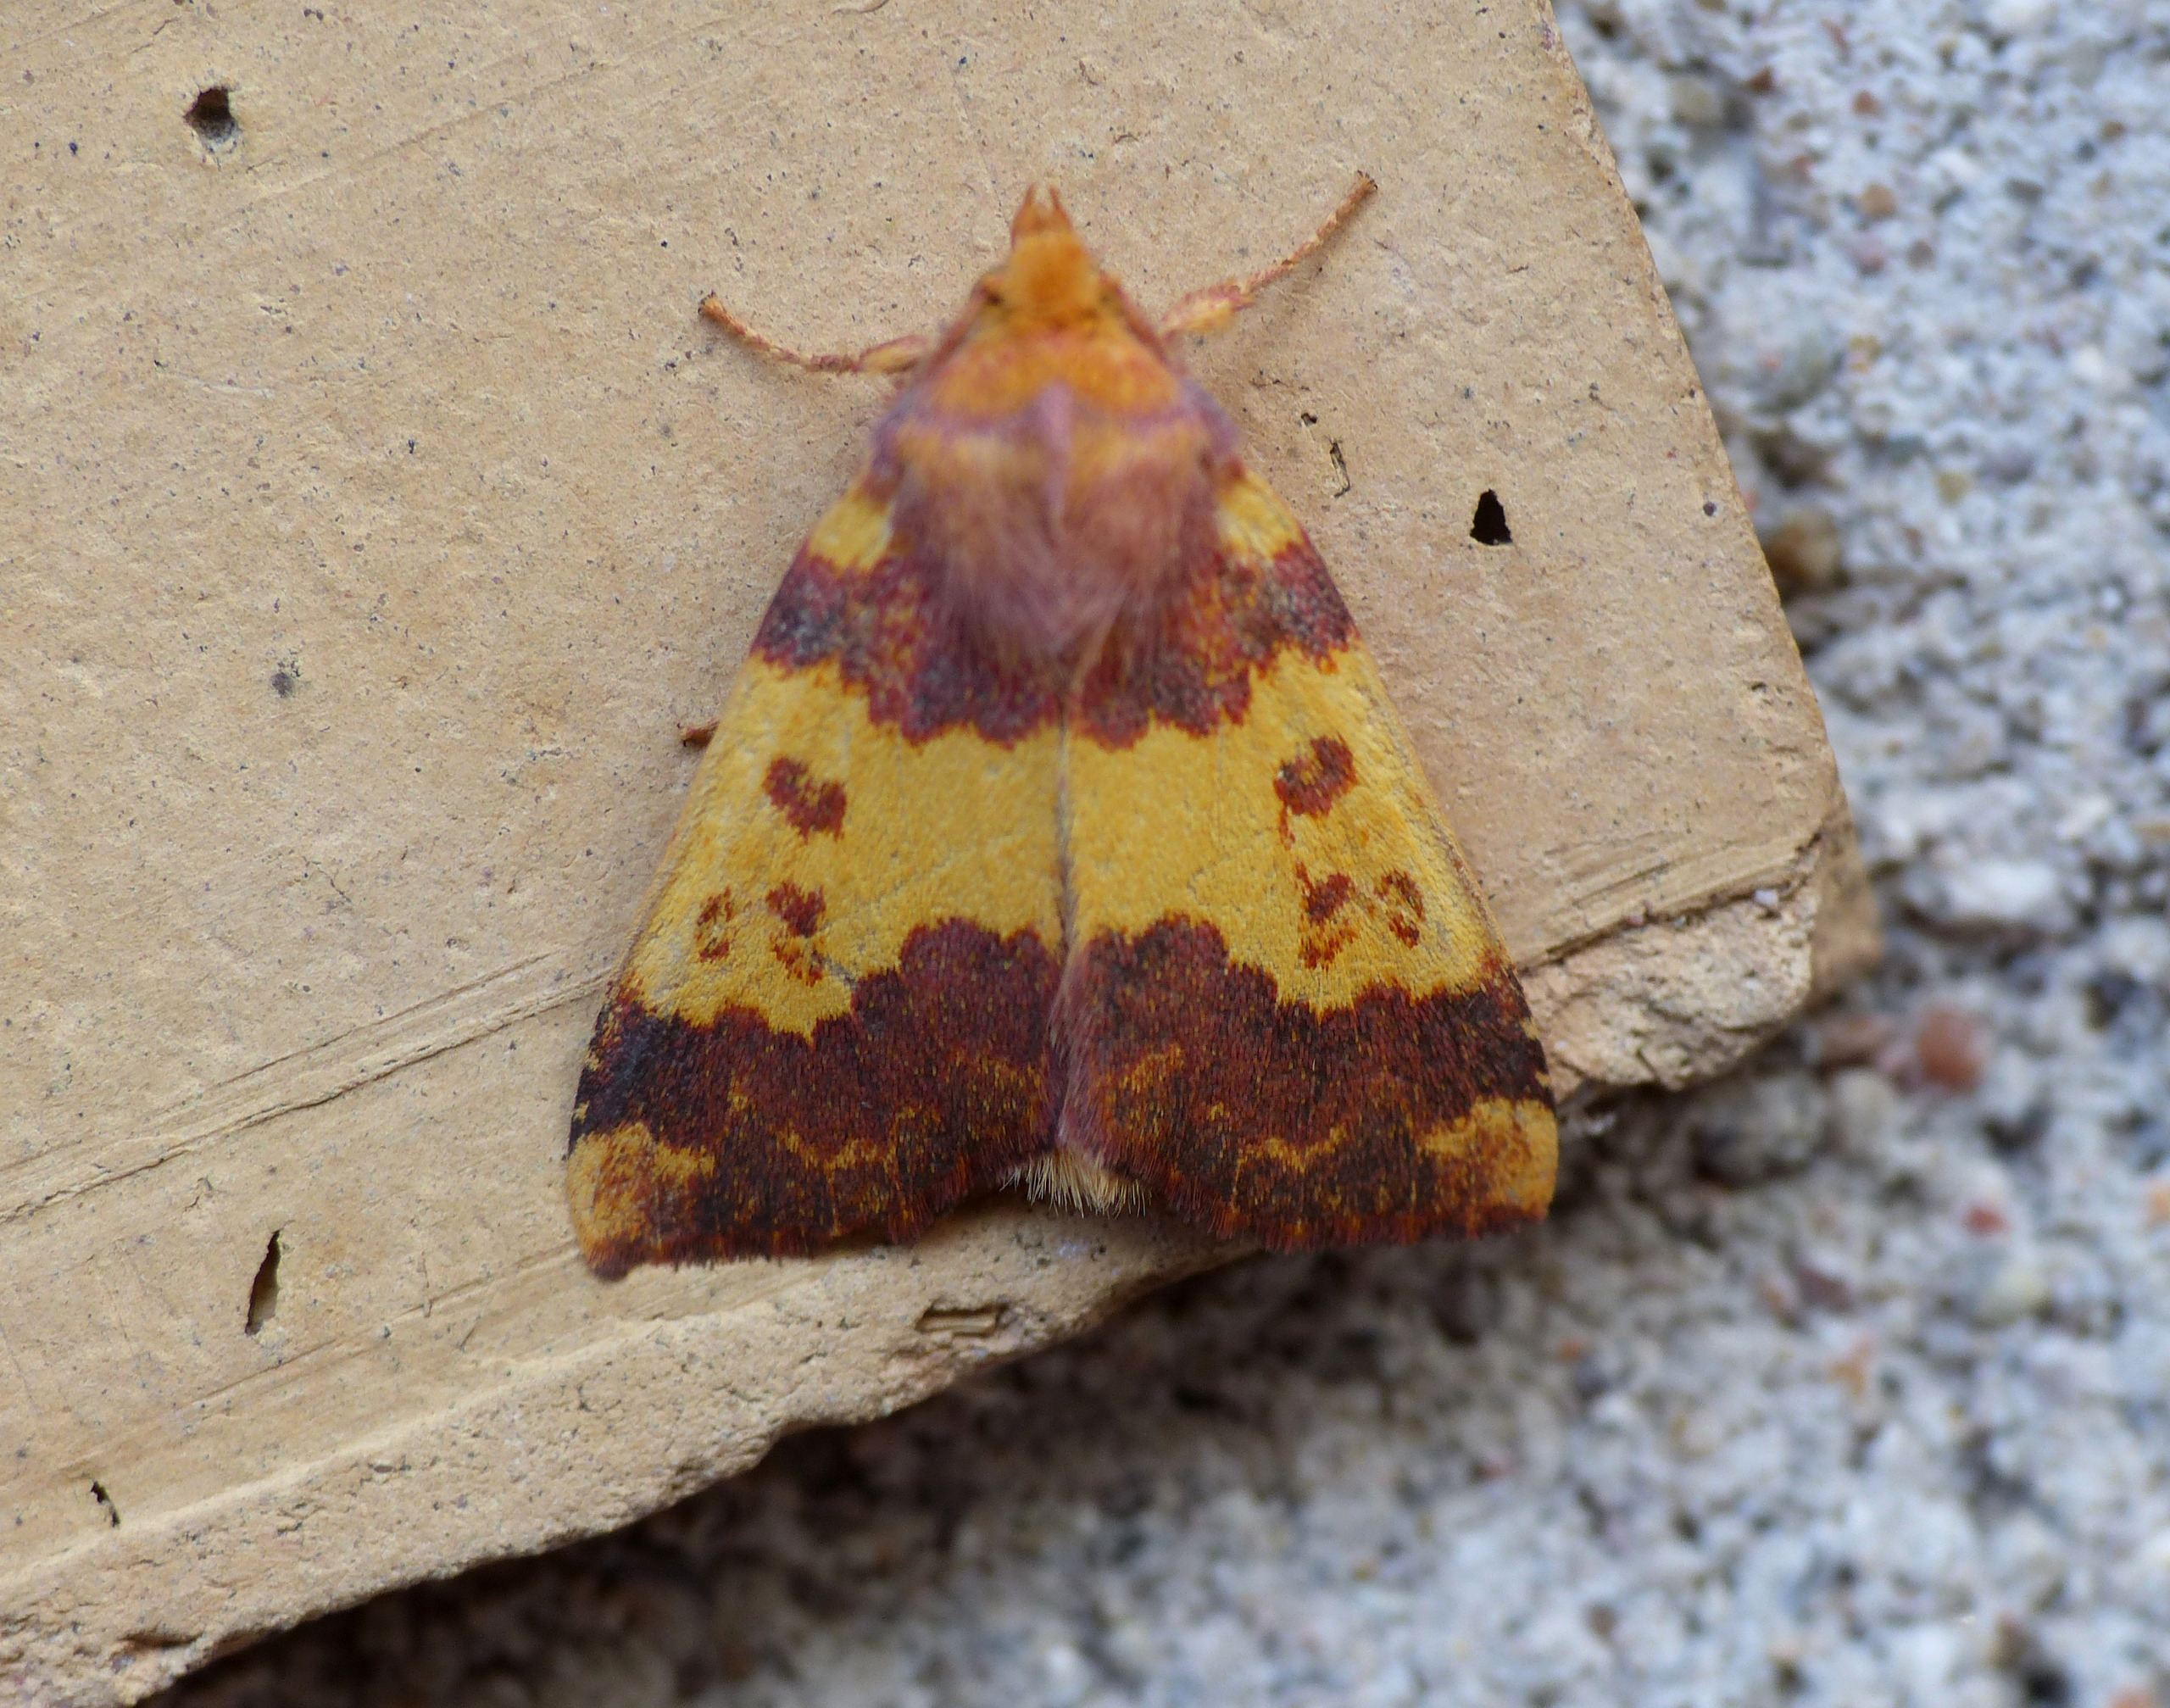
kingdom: Animalia
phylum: Arthropoda
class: Insecta
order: Lepidoptera
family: Noctuidae
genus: Tiliacea
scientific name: Tiliacea aurago
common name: Guldugle
